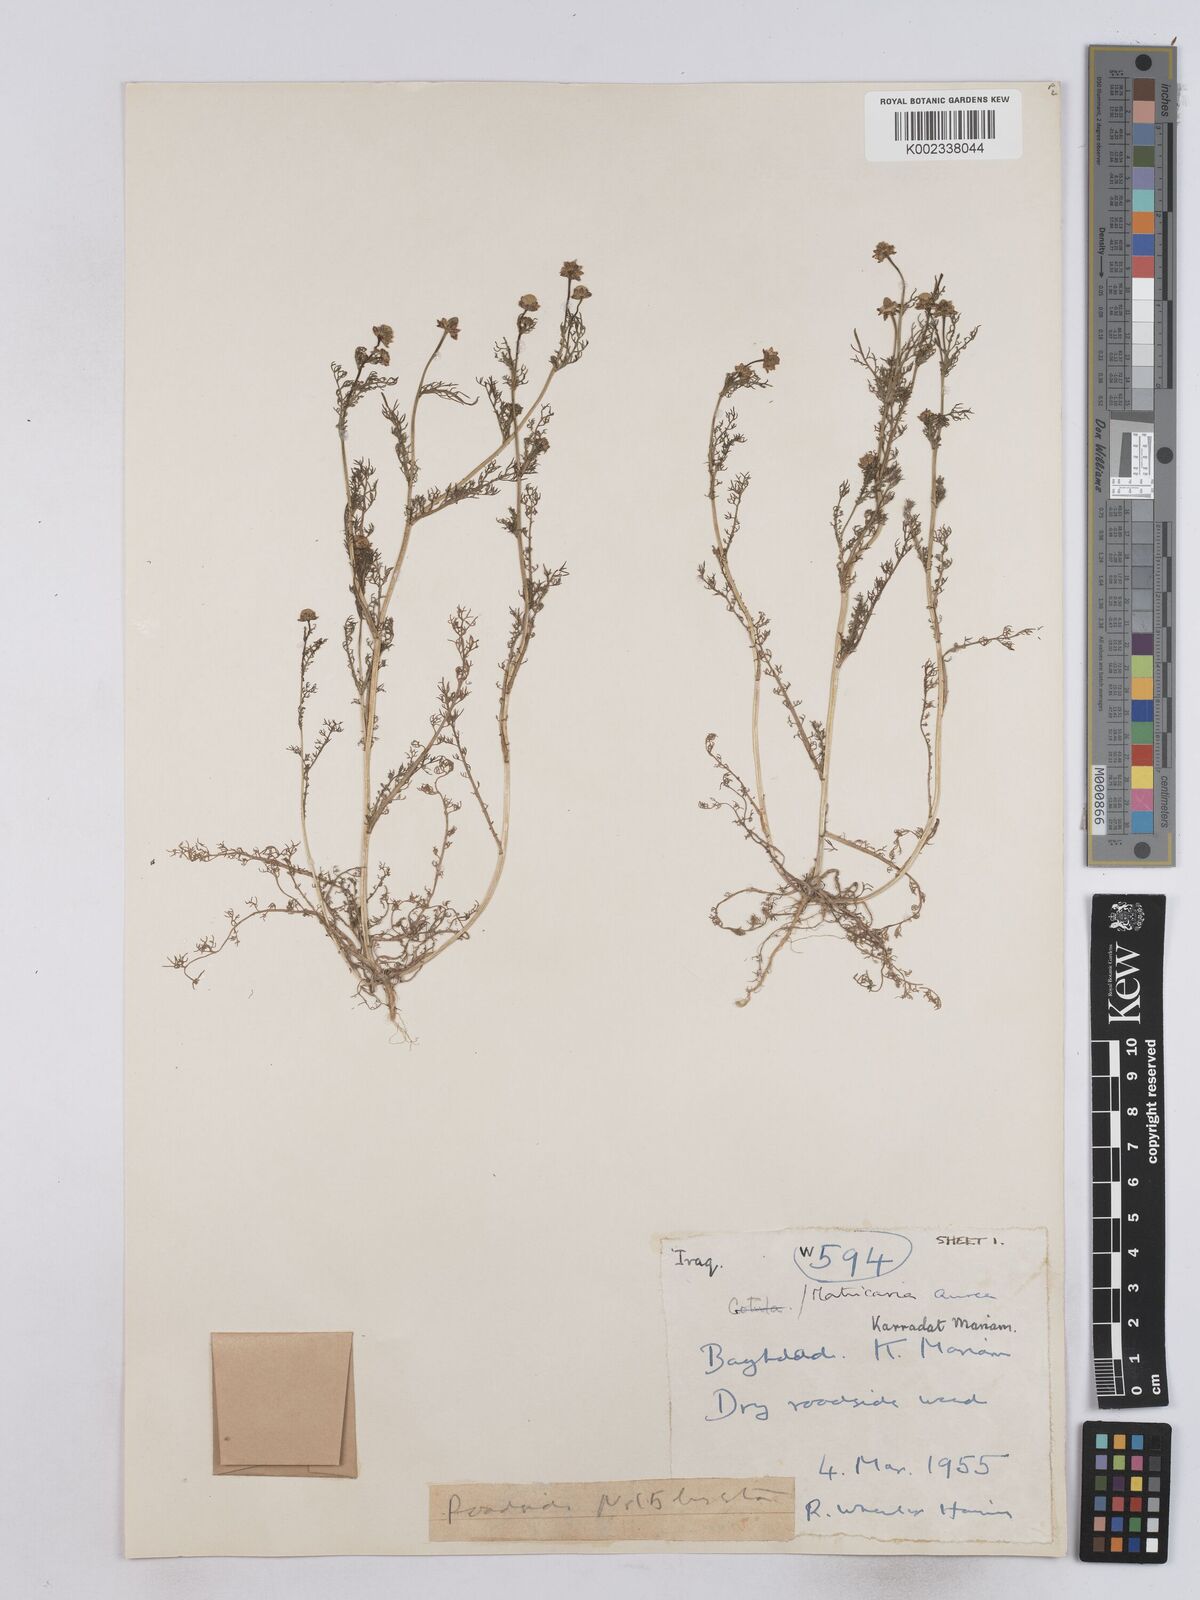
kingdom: Plantae
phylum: Tracheophyta
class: Magnoliopsida
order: Asterales
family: Asteraceae
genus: Matricaria
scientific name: Matricaria aurea
